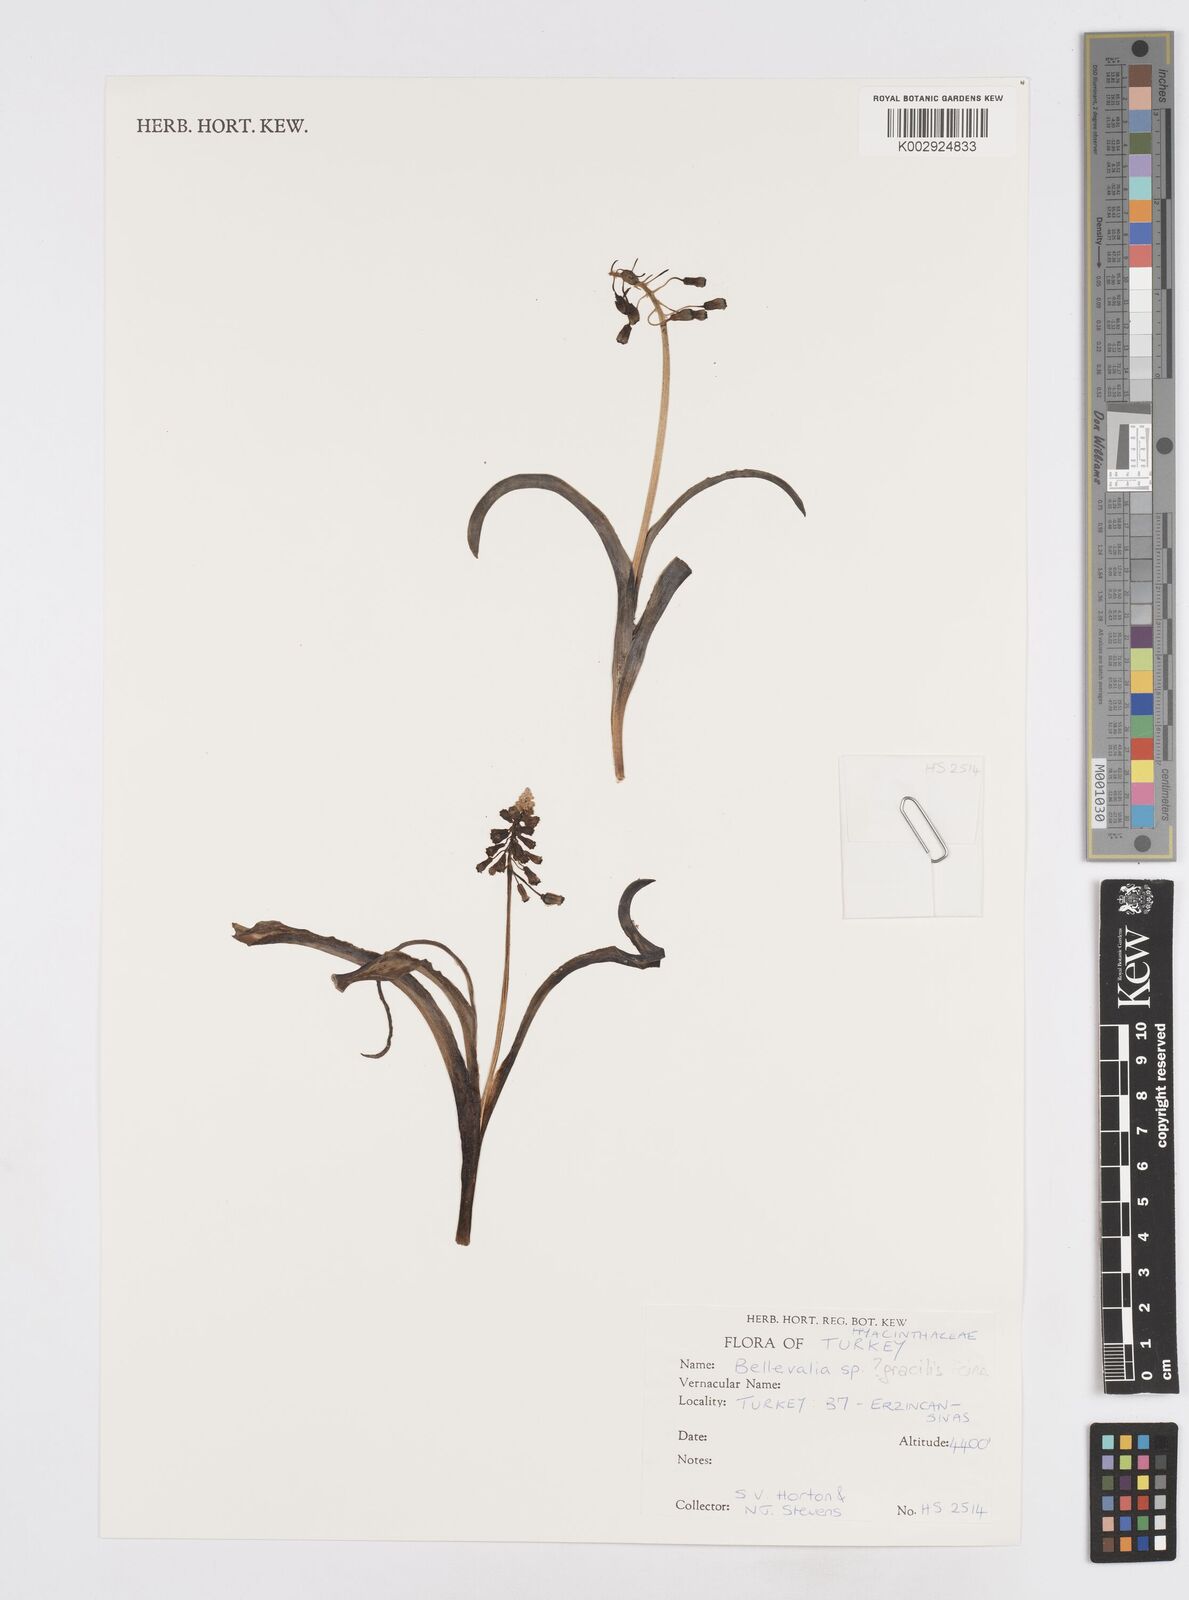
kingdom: Plantae
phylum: Tracheophyta
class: Liliopsida
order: Asparagales
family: Asparagaceae
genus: Bellevalia
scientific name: Bellevalia
